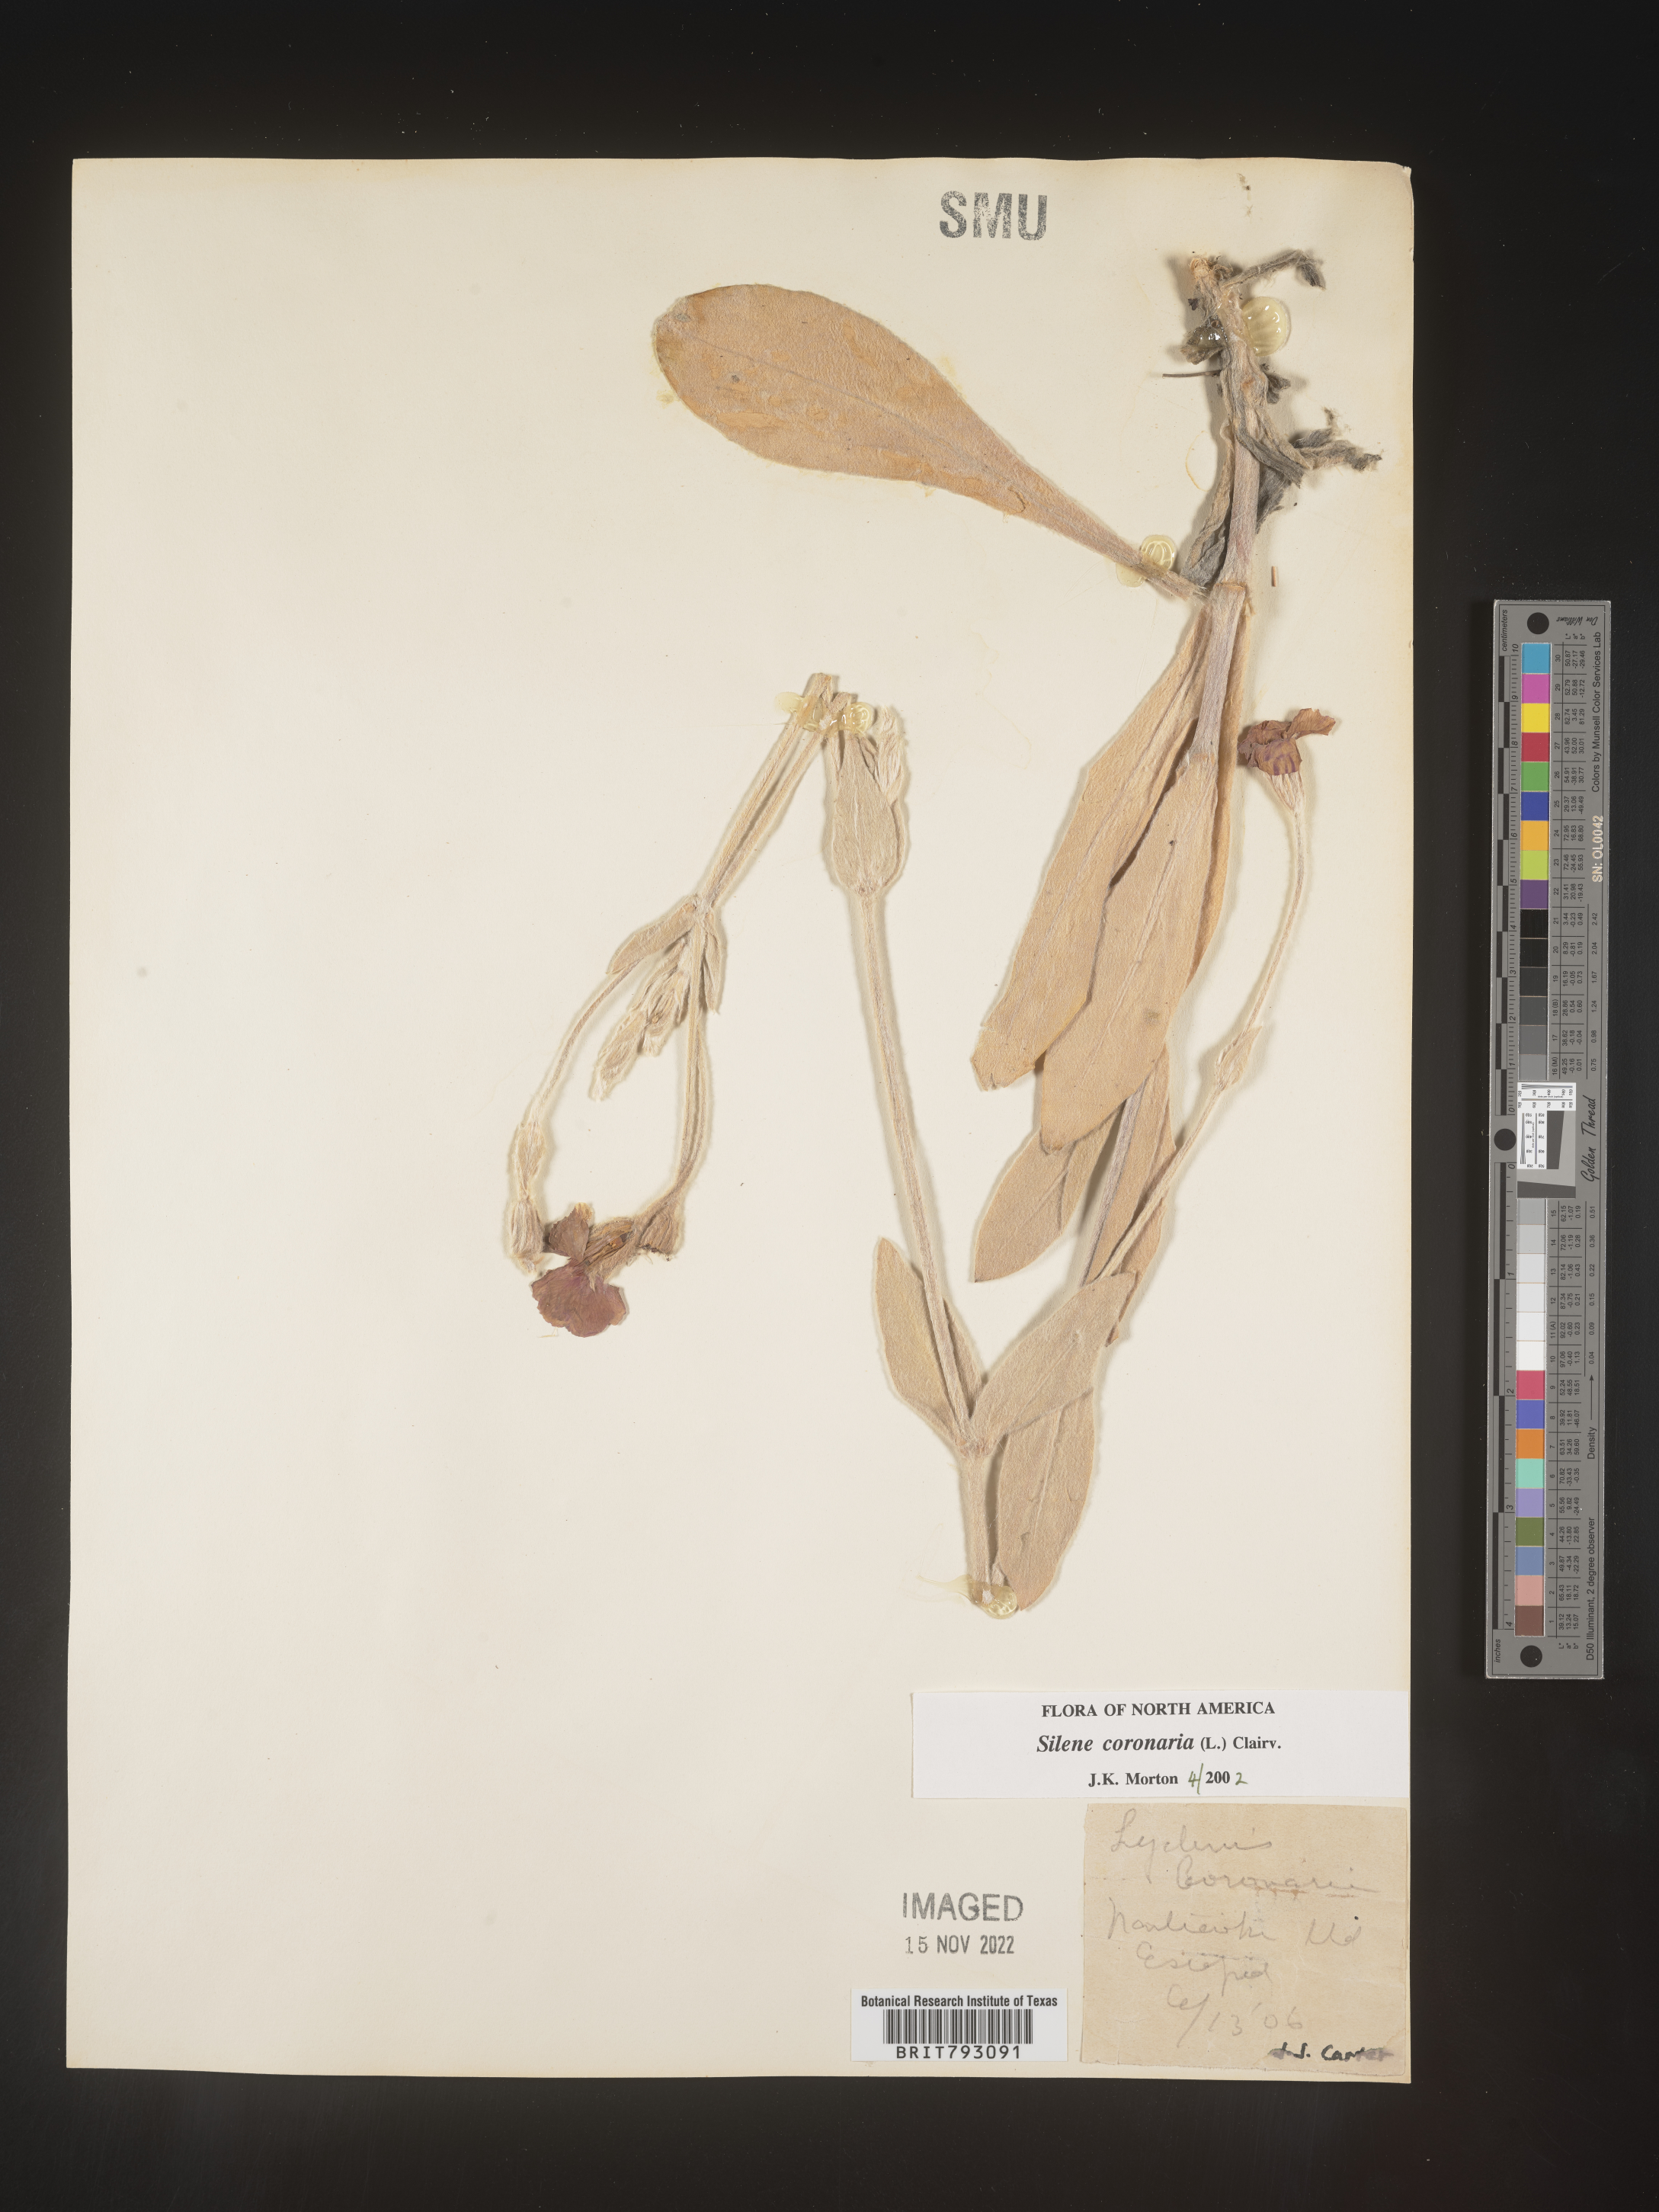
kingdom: Plantae
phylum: Tracheophyta
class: Magnoliopsida
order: Caryophyllales
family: Caryophyllaceae
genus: Silene
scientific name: Silene coronaria
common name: Rose campion
